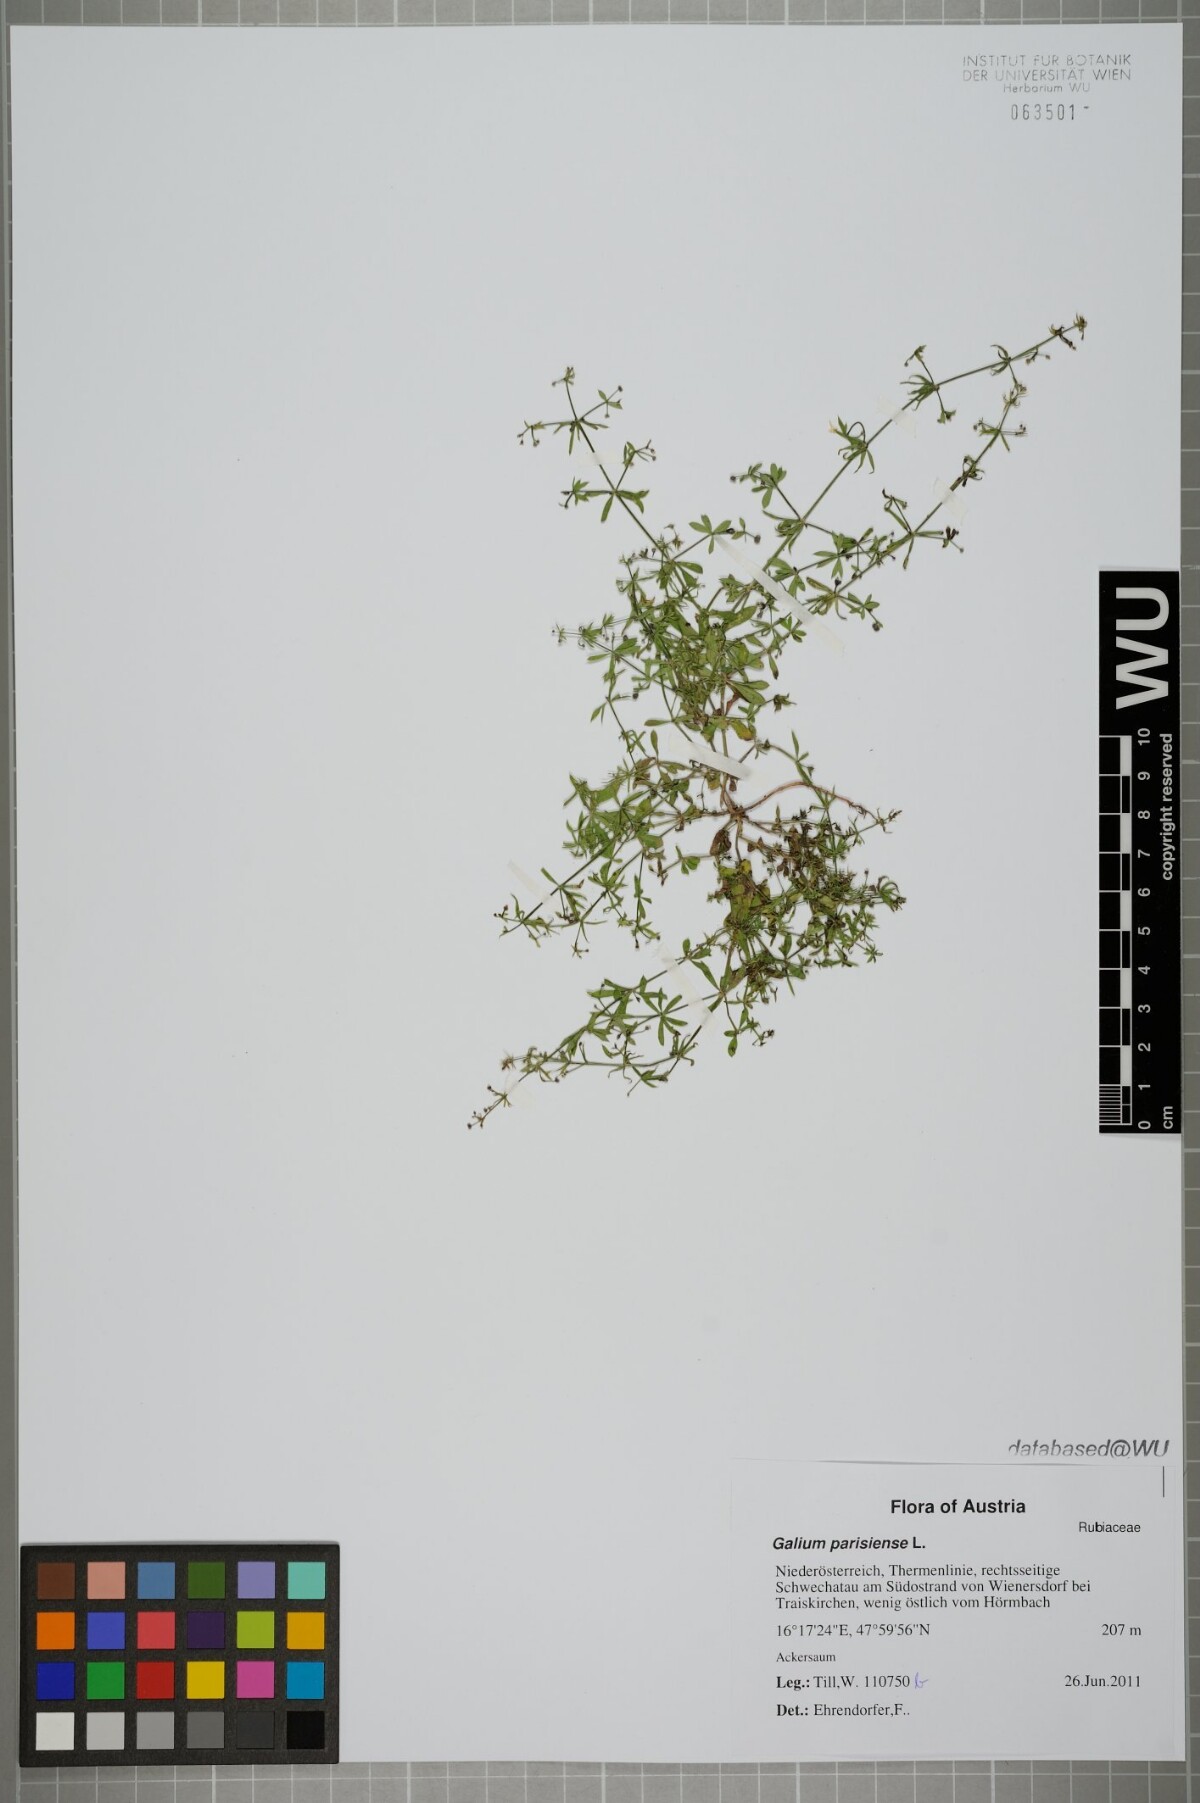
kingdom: Plantae
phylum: Tracheophyta
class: Magnoliopsida
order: Gentianales
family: Rubiaceae
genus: Galium
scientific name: Galium spurium
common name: False cleavers
